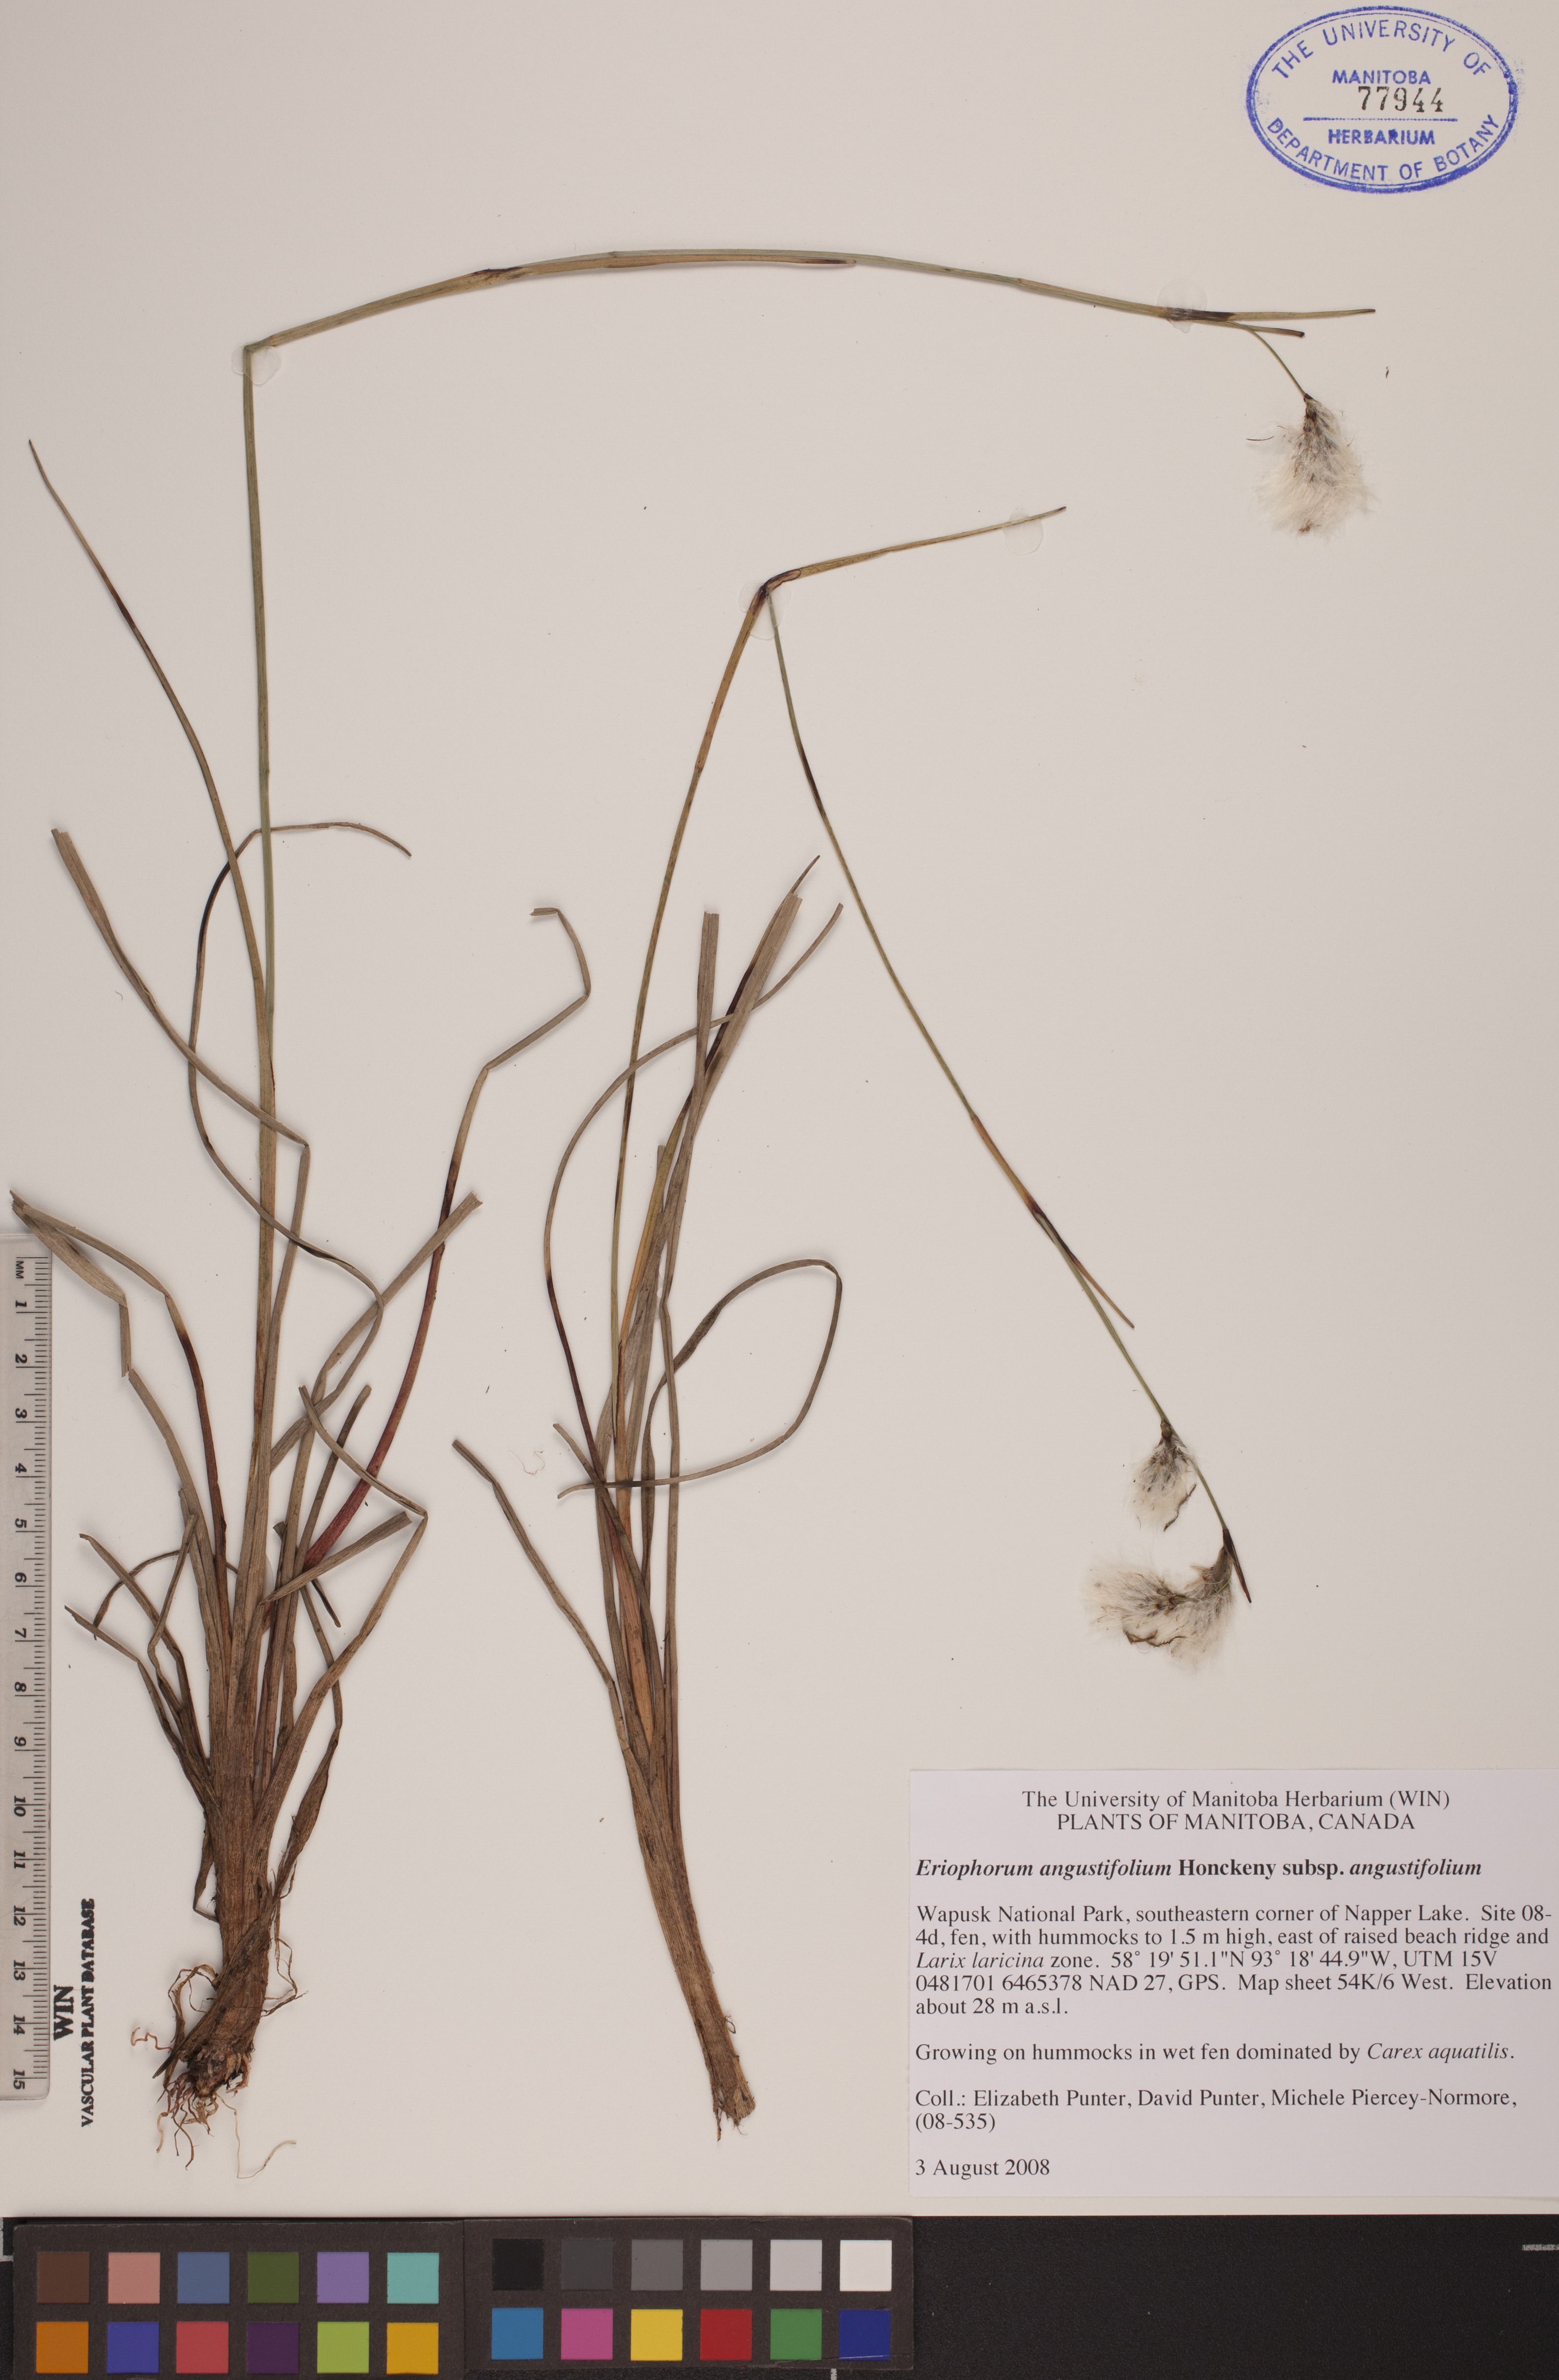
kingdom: Plantae
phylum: Tracheophyta
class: Liliopsida
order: Poales
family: Cyperaceae
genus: Eriophorum
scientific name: Eriophorum angustifolium
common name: Common cottongrass
